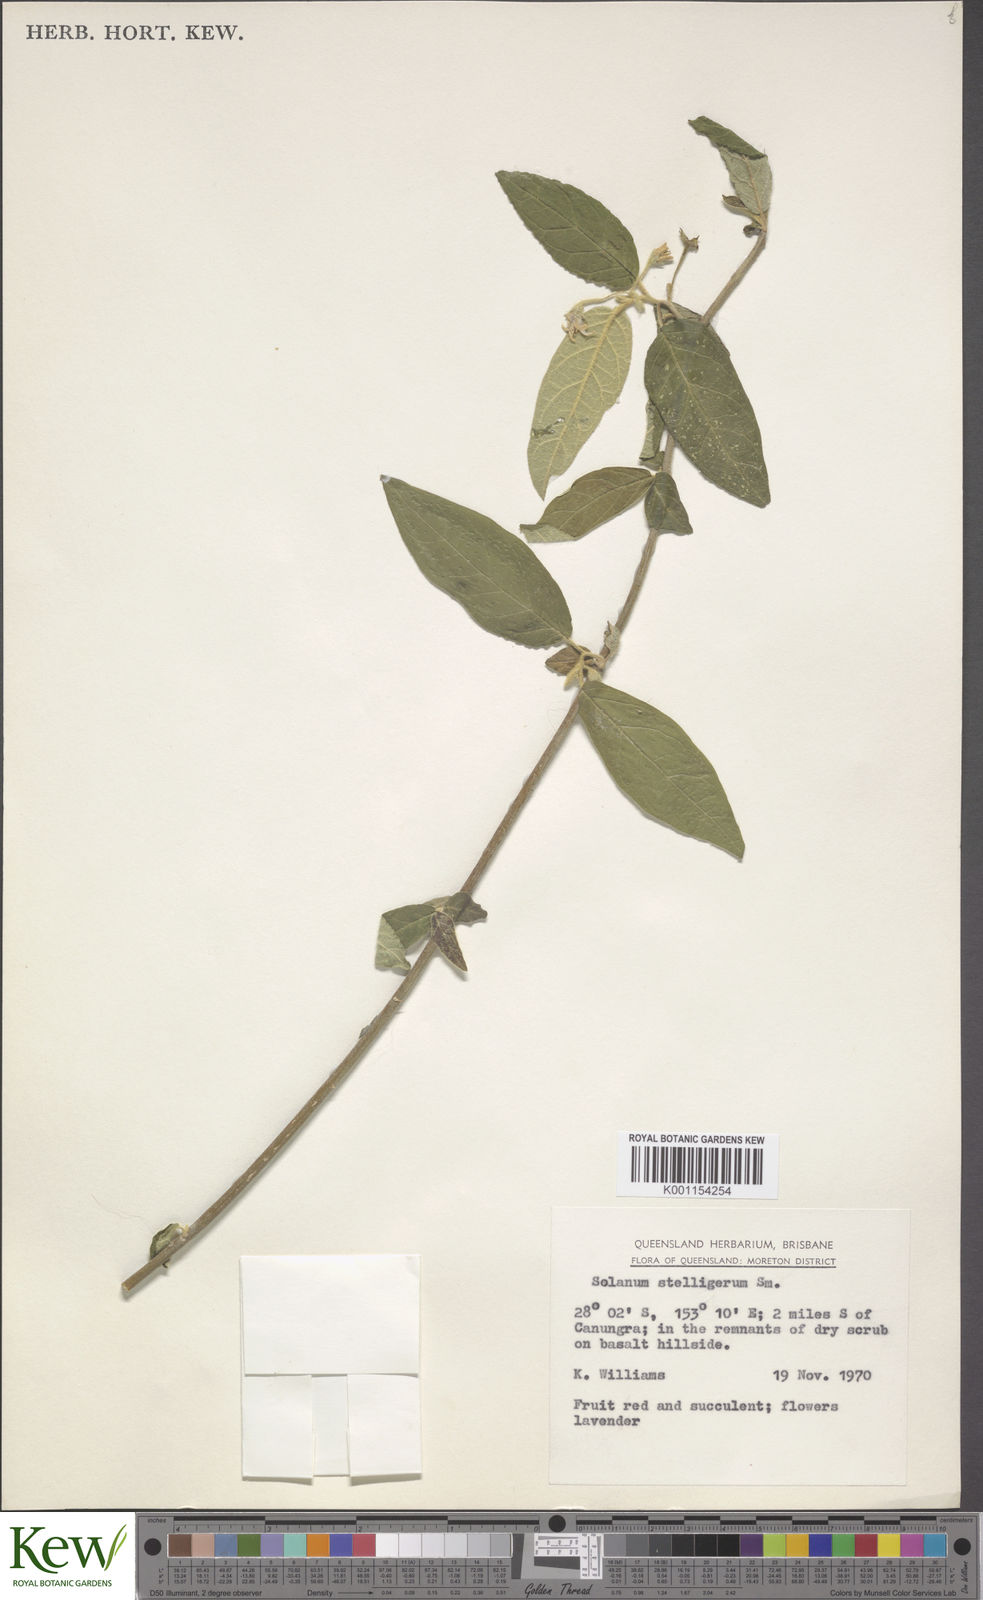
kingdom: Plantae
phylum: Tracheophyta
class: Magnoliopsida
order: Solanales
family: Solanaceae
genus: Solanum
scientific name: Solanum stelligerum
